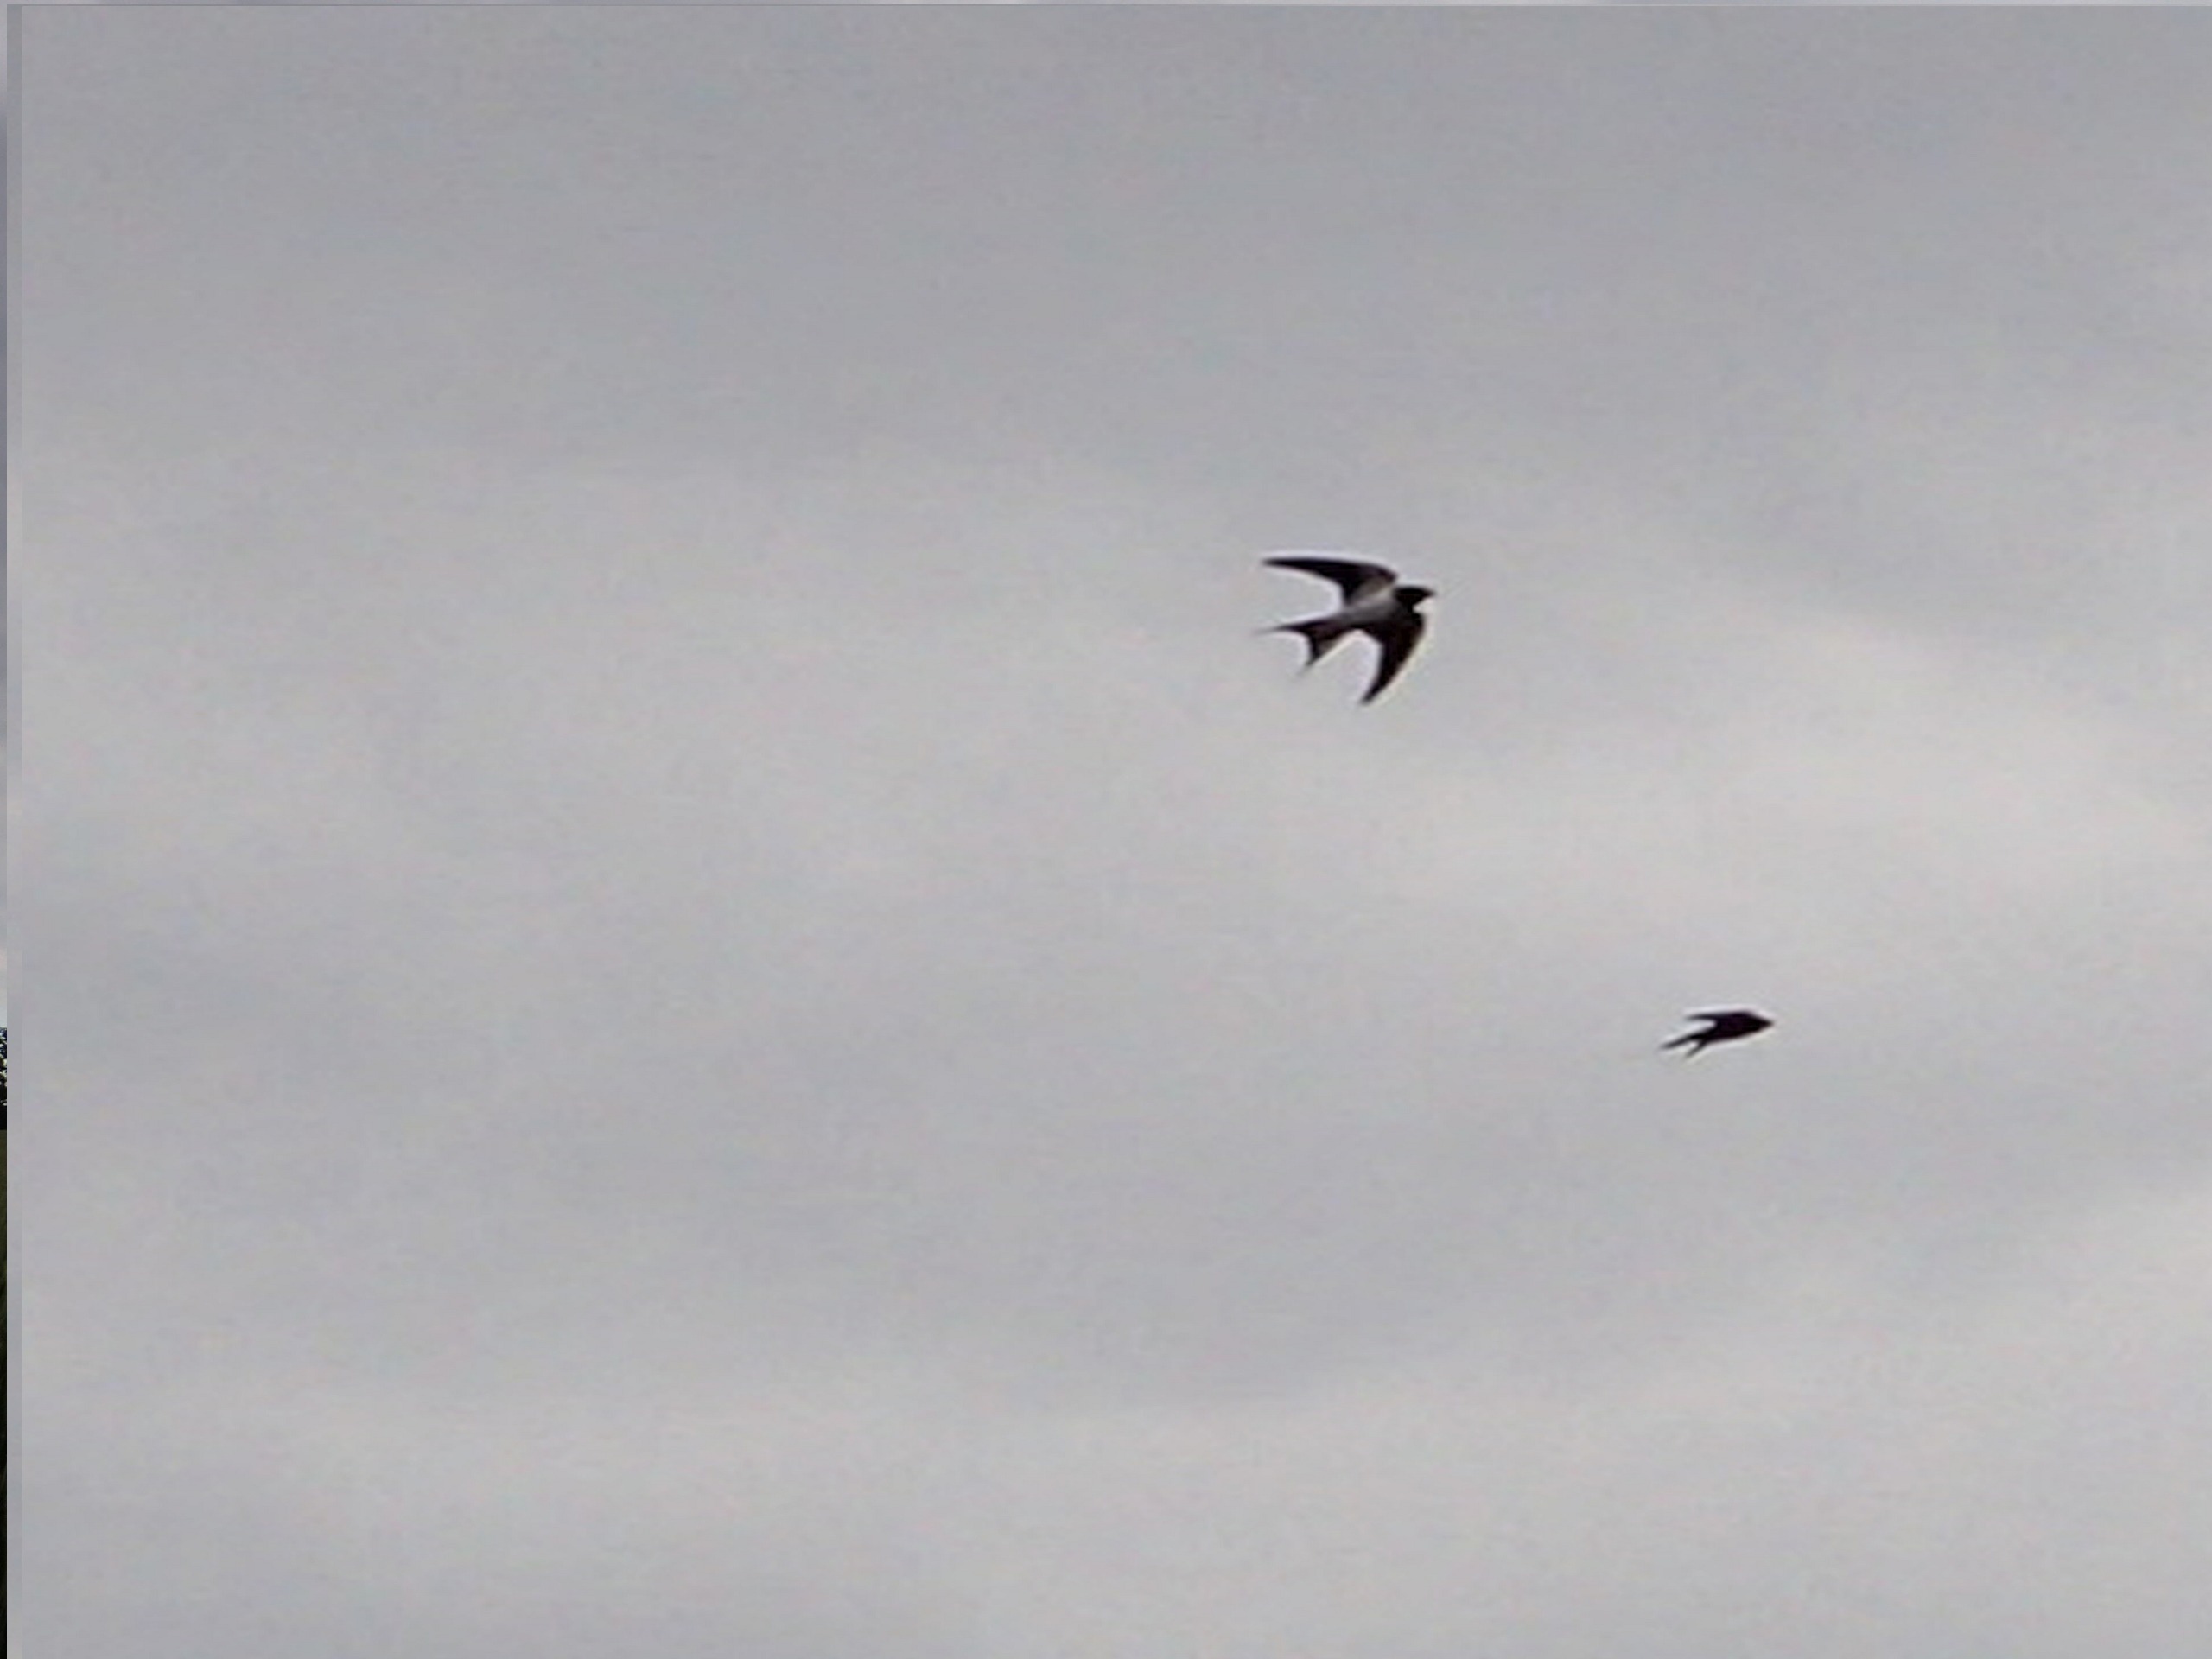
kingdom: Animalia
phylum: Chordata
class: Aves
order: Passeriformes
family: Hirundinidae
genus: Hirundo
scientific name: Hirundo rustica
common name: Landsvale
